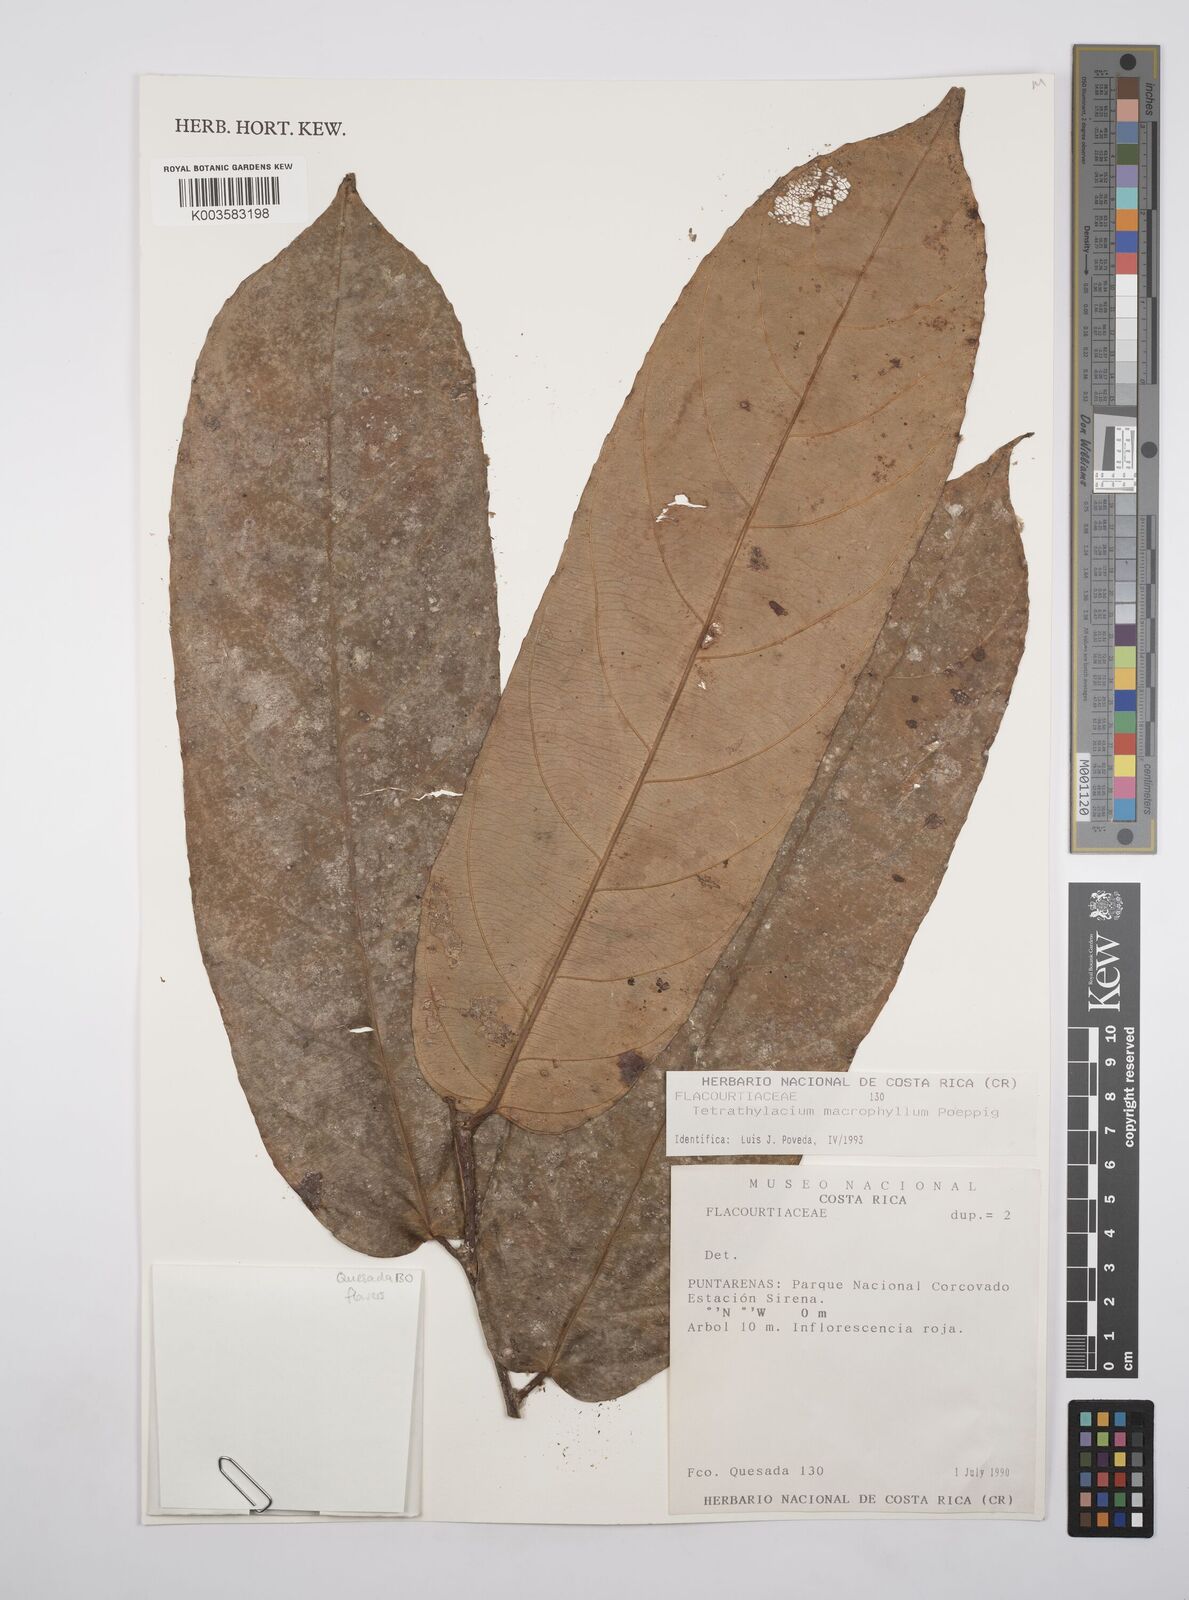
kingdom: Plantae
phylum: Tracheophyta
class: Magnoliopsida
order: Malpighiales
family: Salicaceae
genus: Tetrathylacium
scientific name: Tetrathylacium macrophyllum
